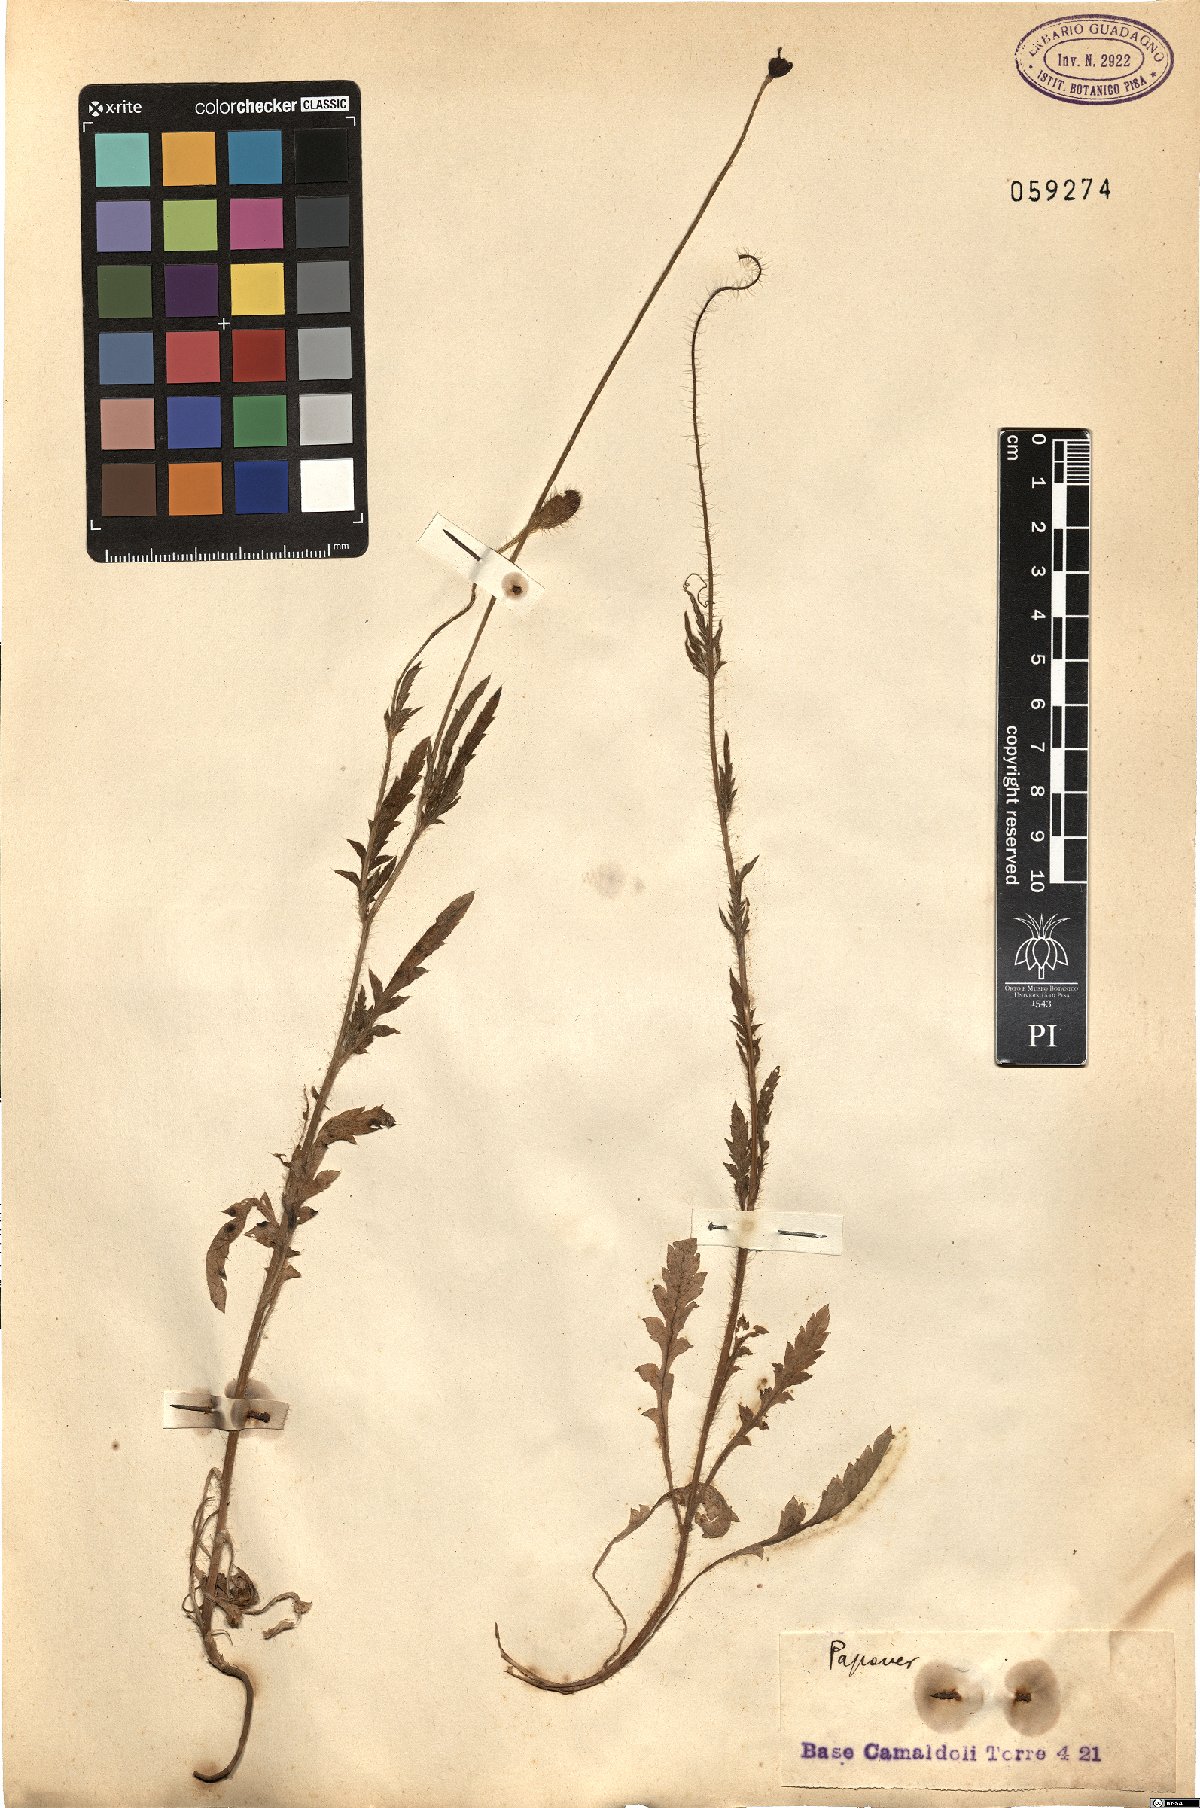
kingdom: Plantae
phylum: Tracheophyta
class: Magnoliopsida
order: Ranunculales
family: Papaveraceae
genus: Papaver
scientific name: Papaver
